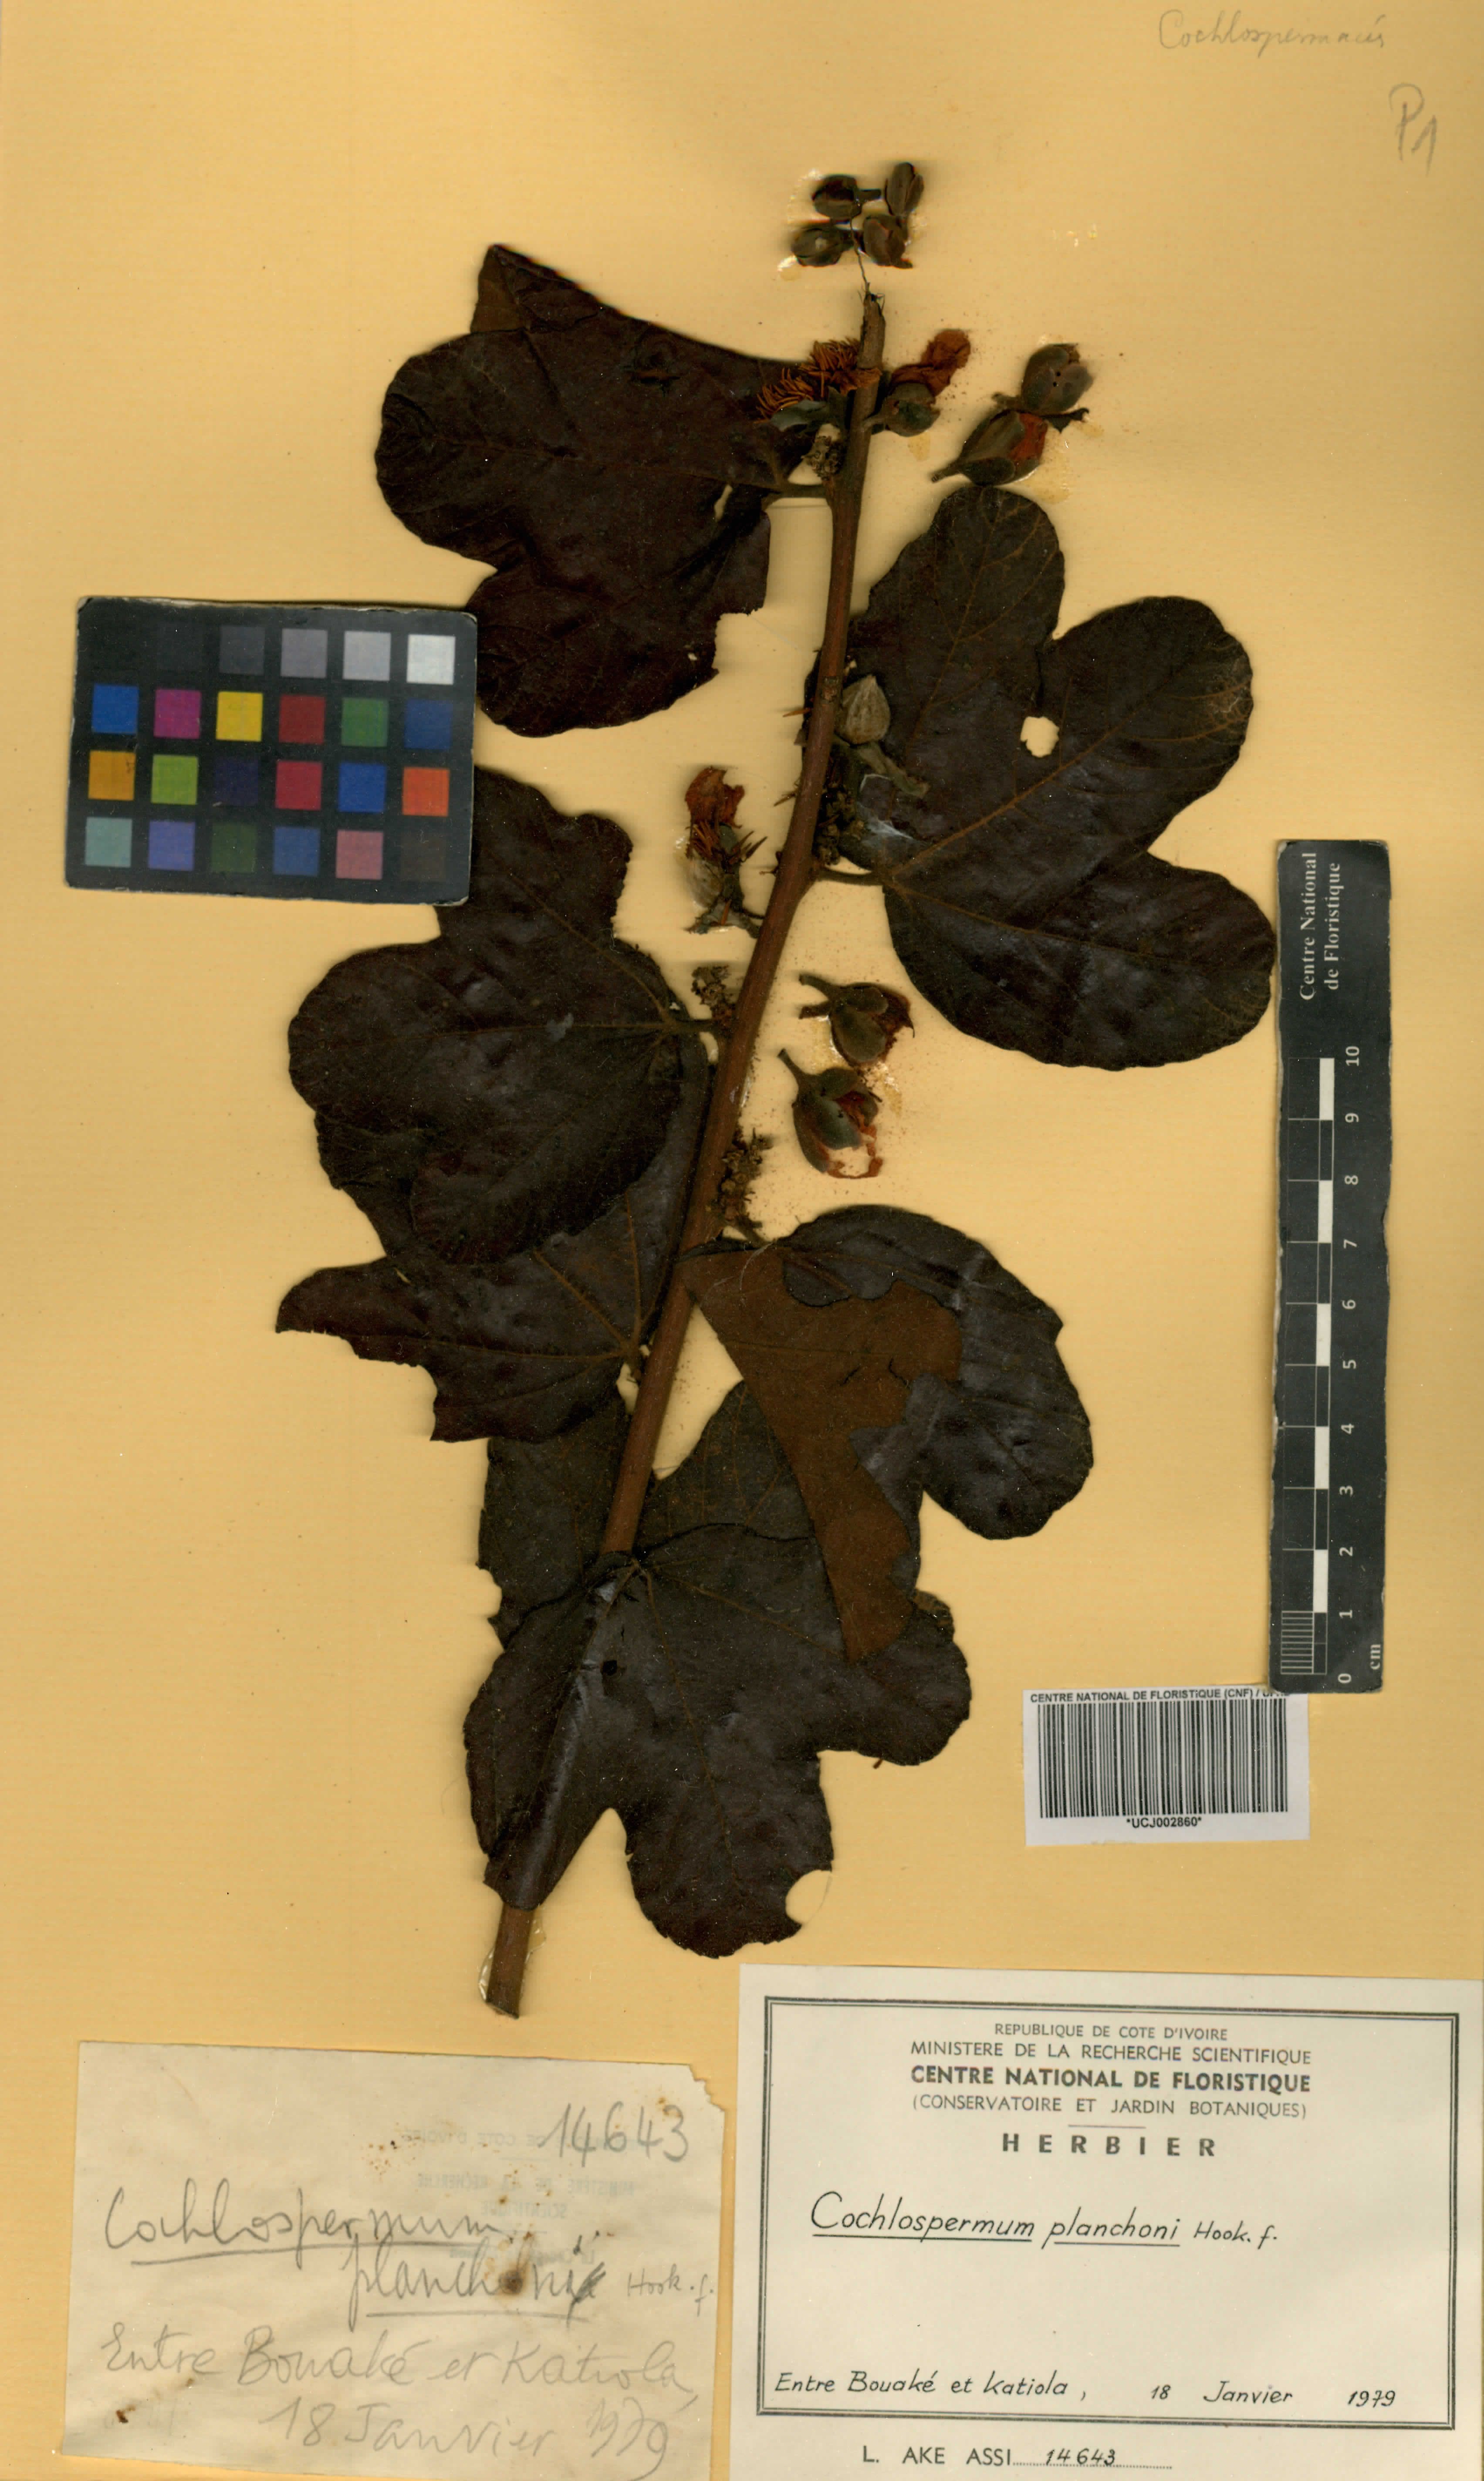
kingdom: Plantae
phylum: Tracheophyta
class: Magnoliopsida
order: Malvales
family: Cochlospermaceae
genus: Cochlospermum
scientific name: Cochlospermum planchonii
